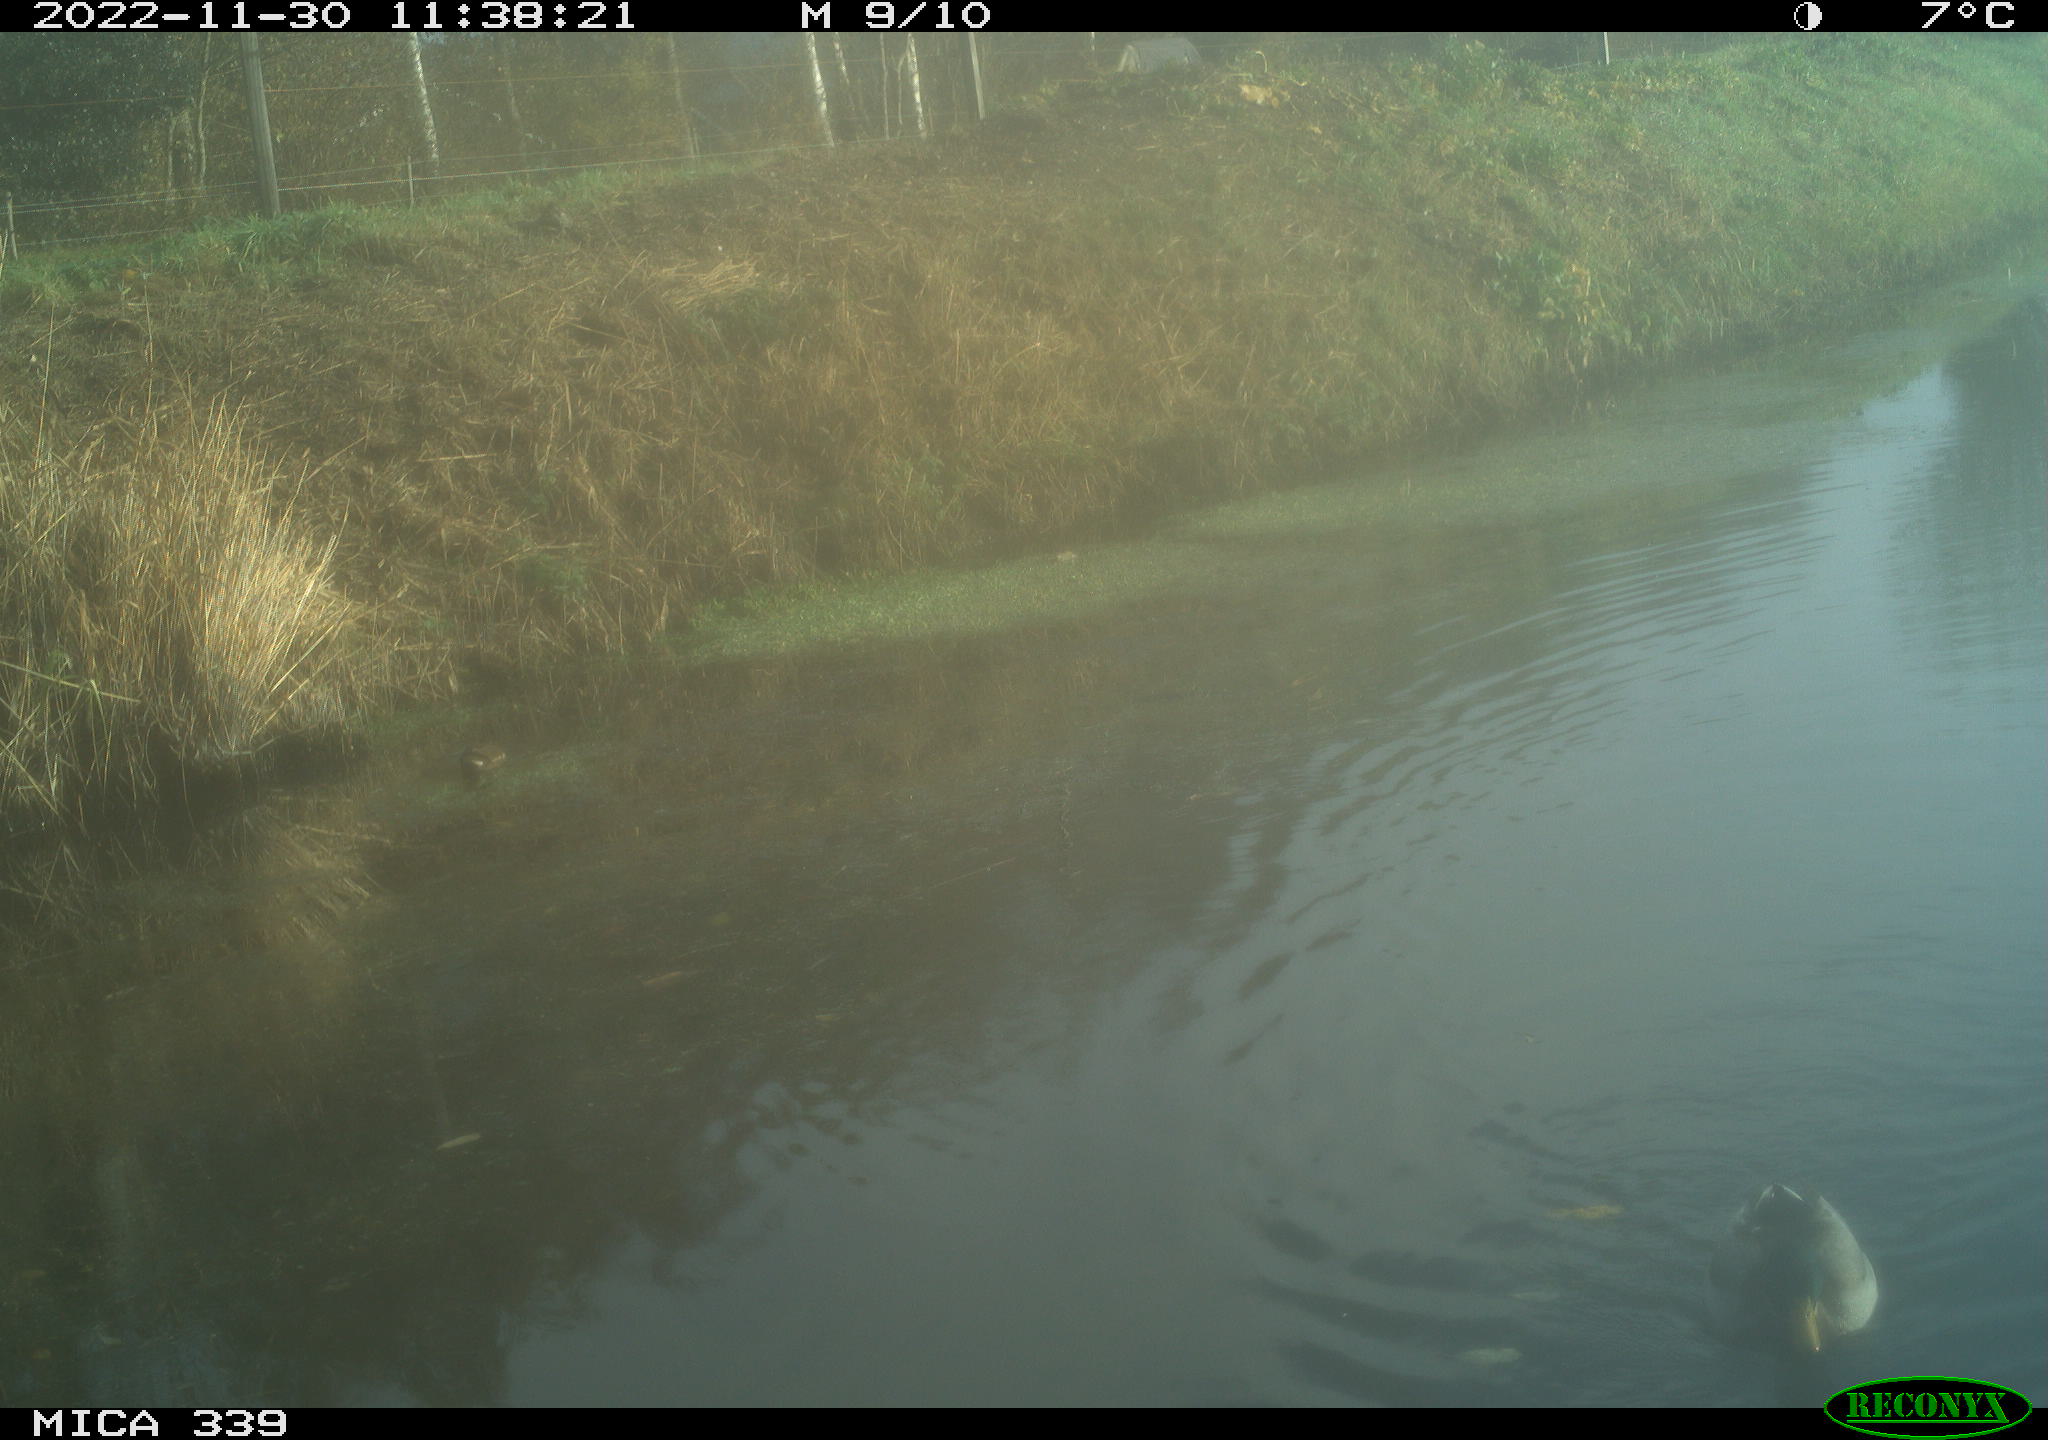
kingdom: Animalia
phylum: Chordata
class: Aves
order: Anseriformes
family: Anatidae
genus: Anas
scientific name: Anas platyrhynchos
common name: Mallard
